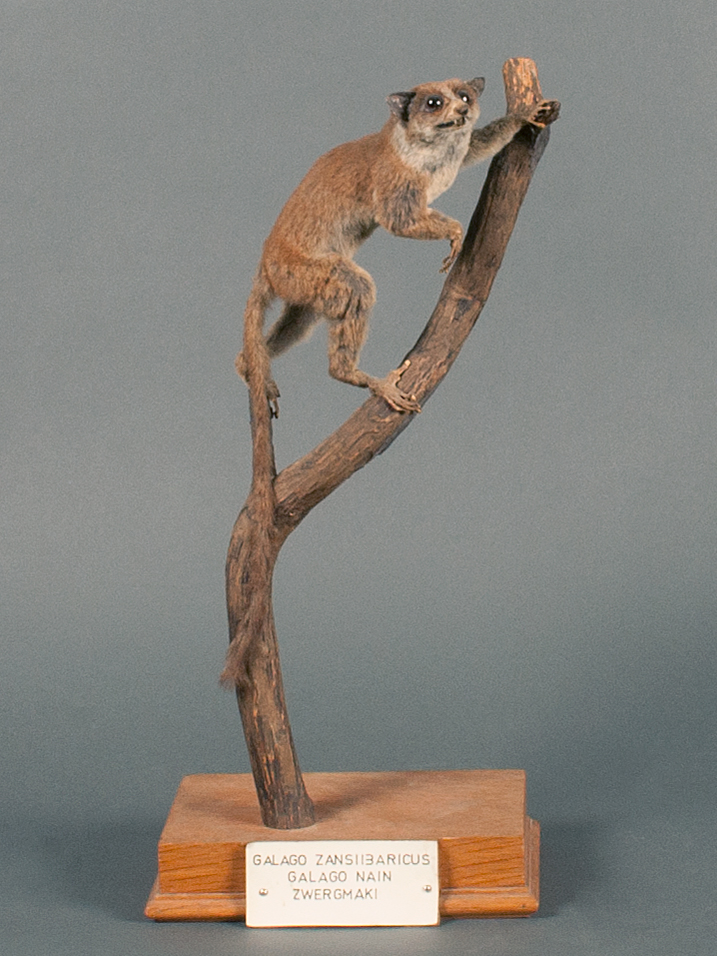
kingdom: Animalia
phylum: Chordata
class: Mammalia
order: Primates
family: Galagidae
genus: Paragalago
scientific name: Paragalago zanzibaricus
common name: Tanzania coast dwarf galago
